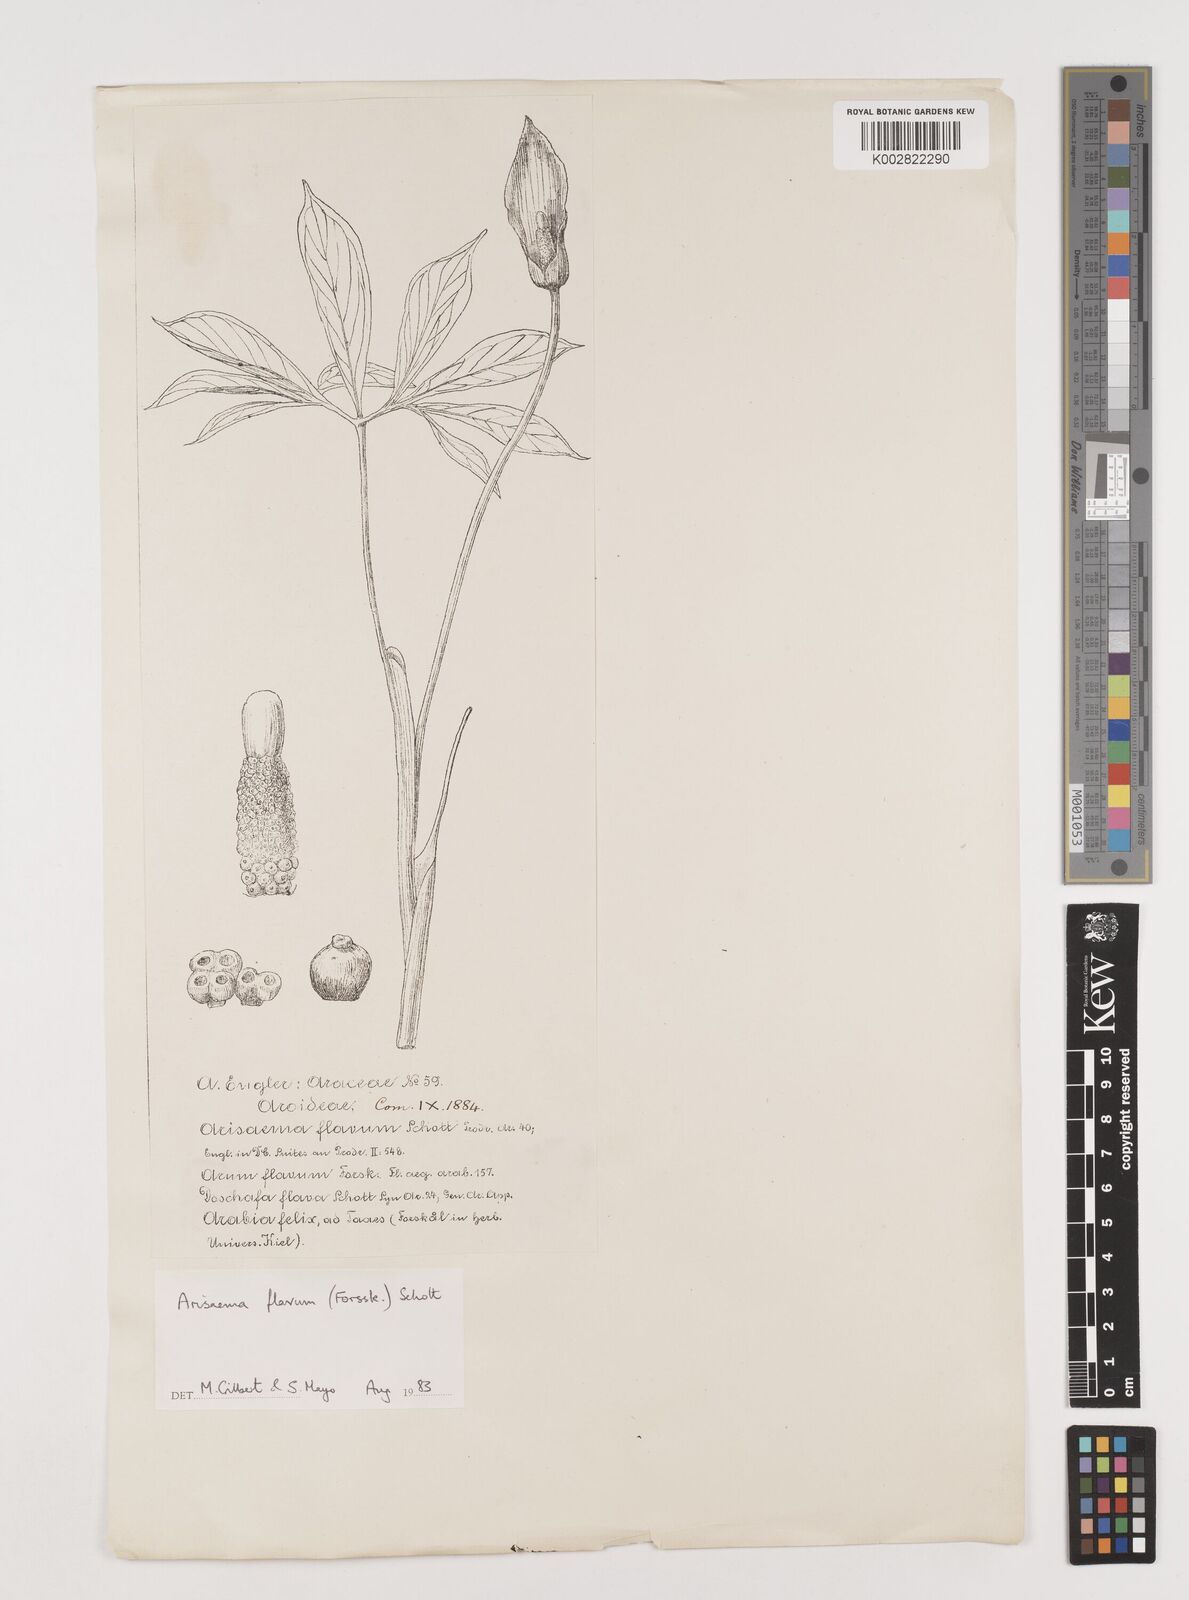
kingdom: Plantae
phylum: Tracheophyta
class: Liliopsida
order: Alismatales
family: Araceae
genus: Arisaema
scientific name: Arisaema flavum
